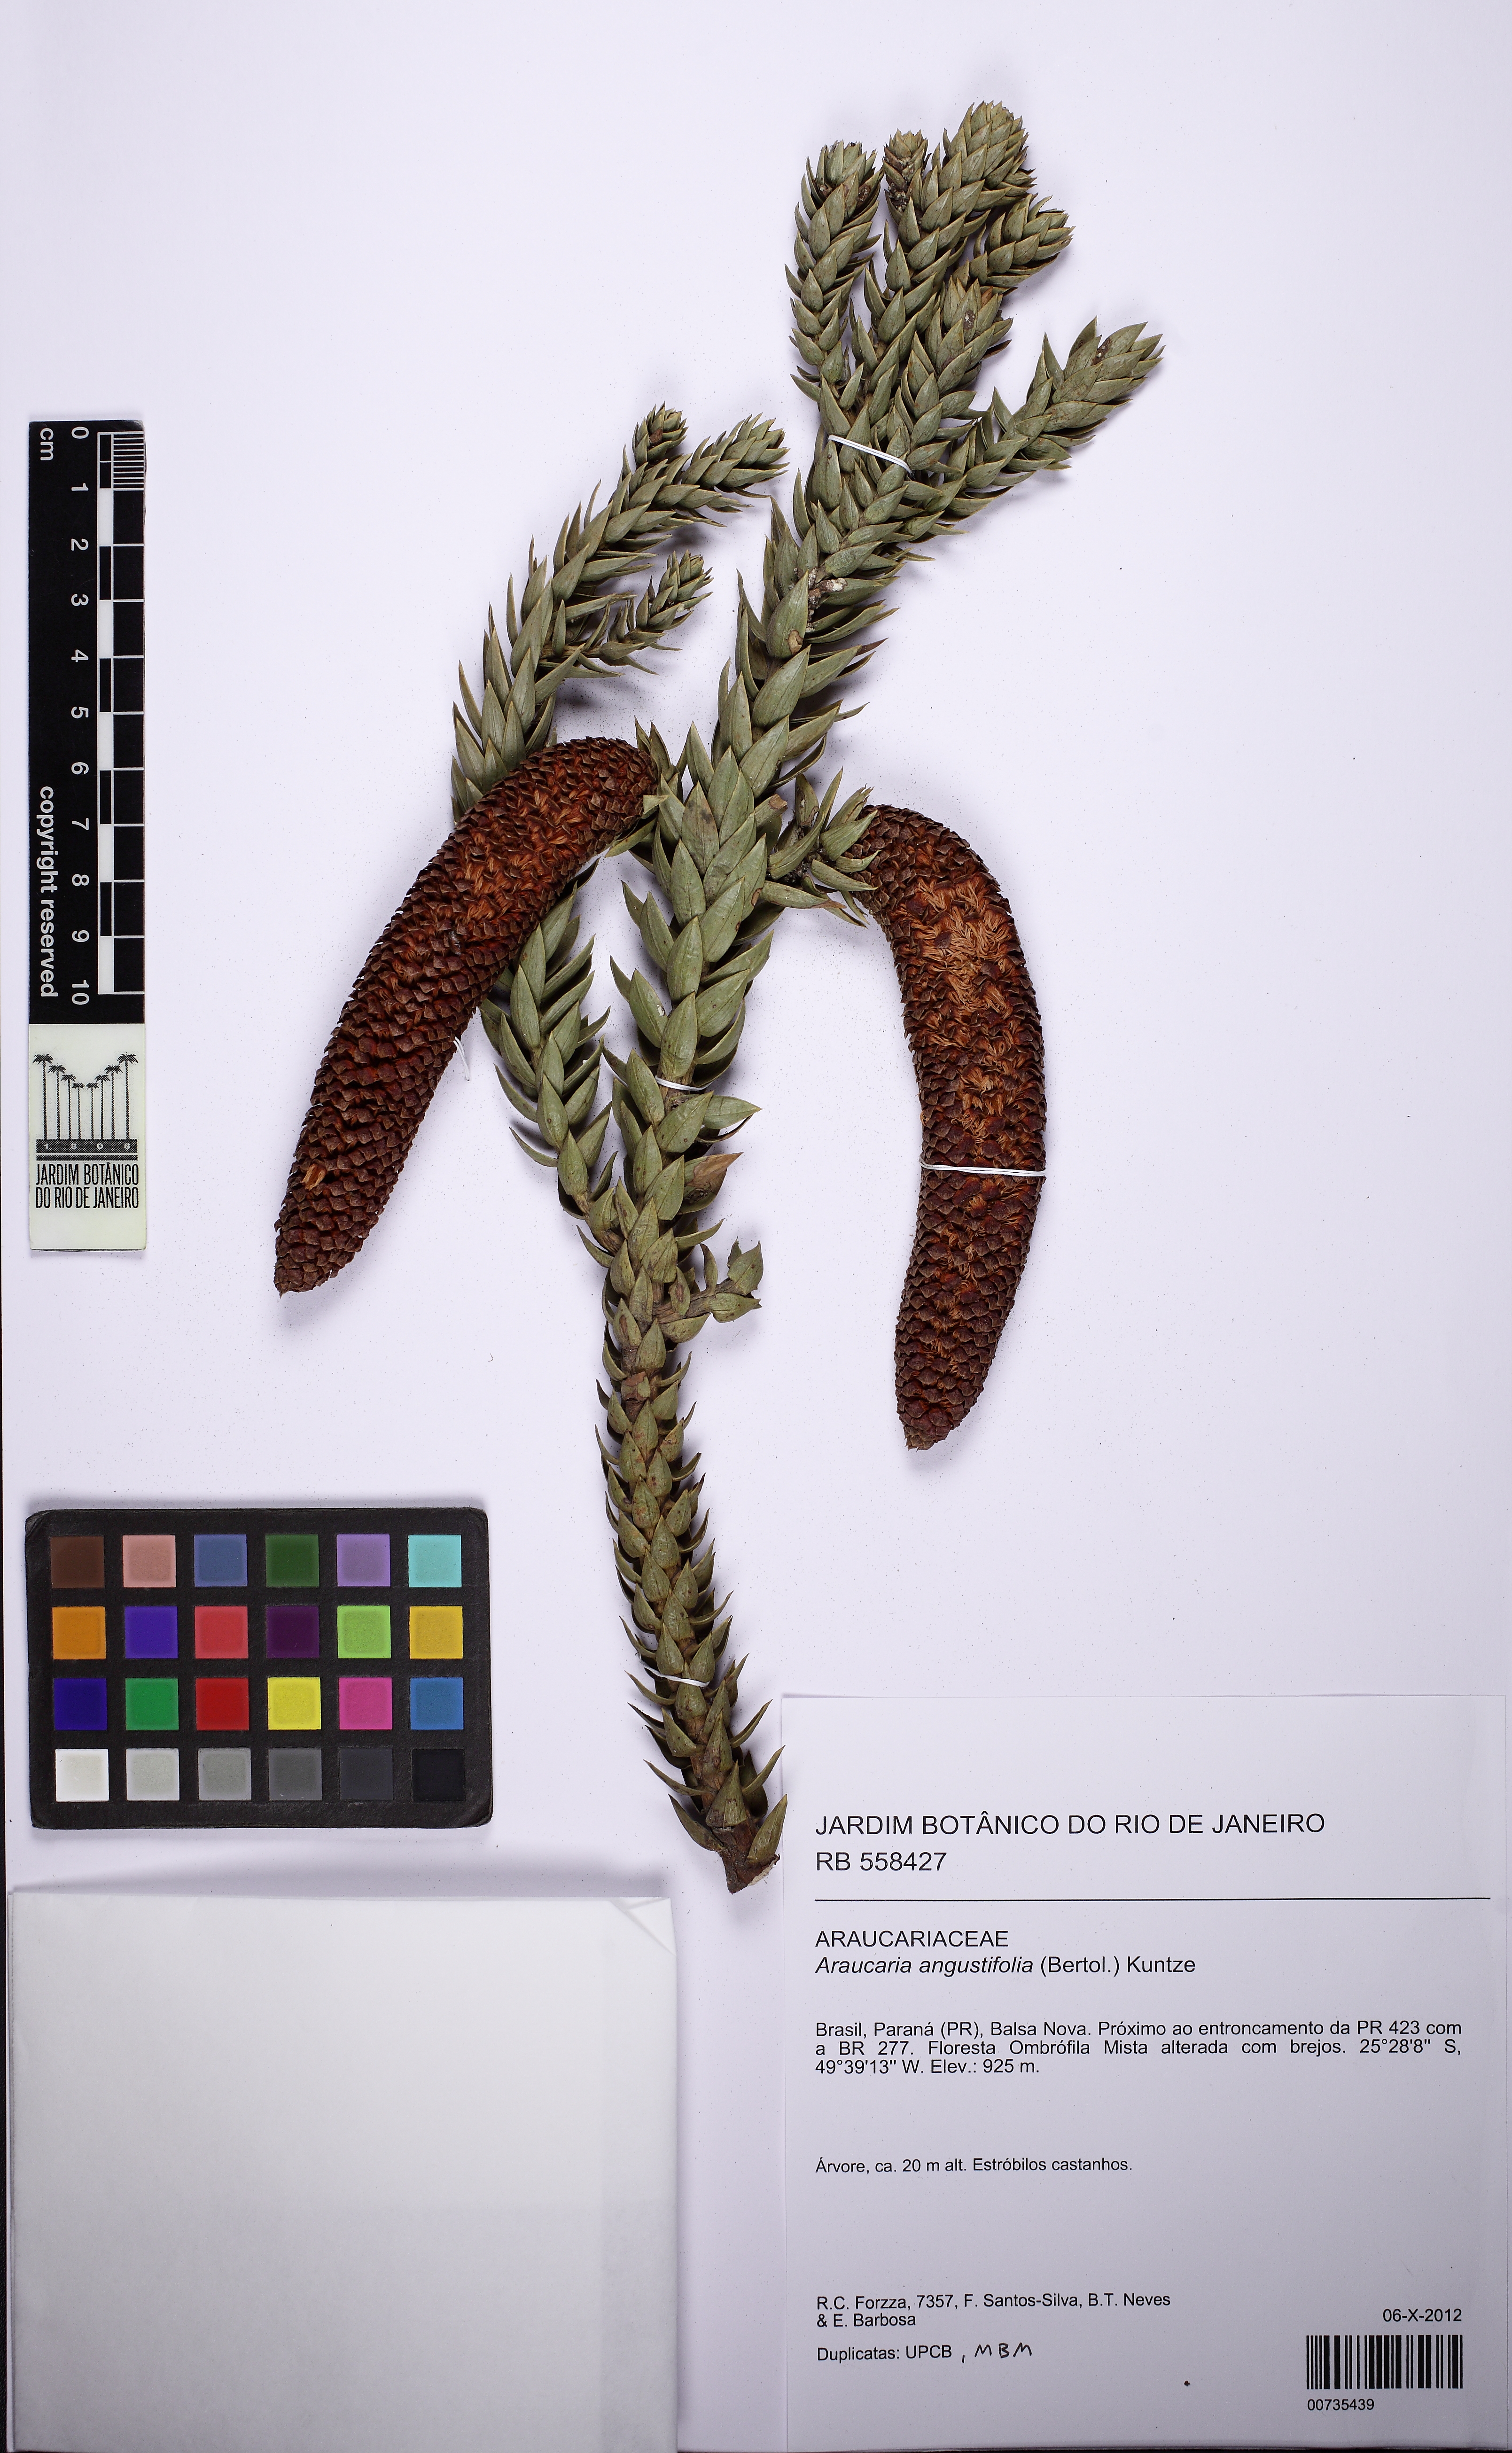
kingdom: Plantae
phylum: Tracheophyta
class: Pinopsida
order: Pinales
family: Araucariaceae
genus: Araucaria
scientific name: Araucaria angustifolia
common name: Candelabra tree
